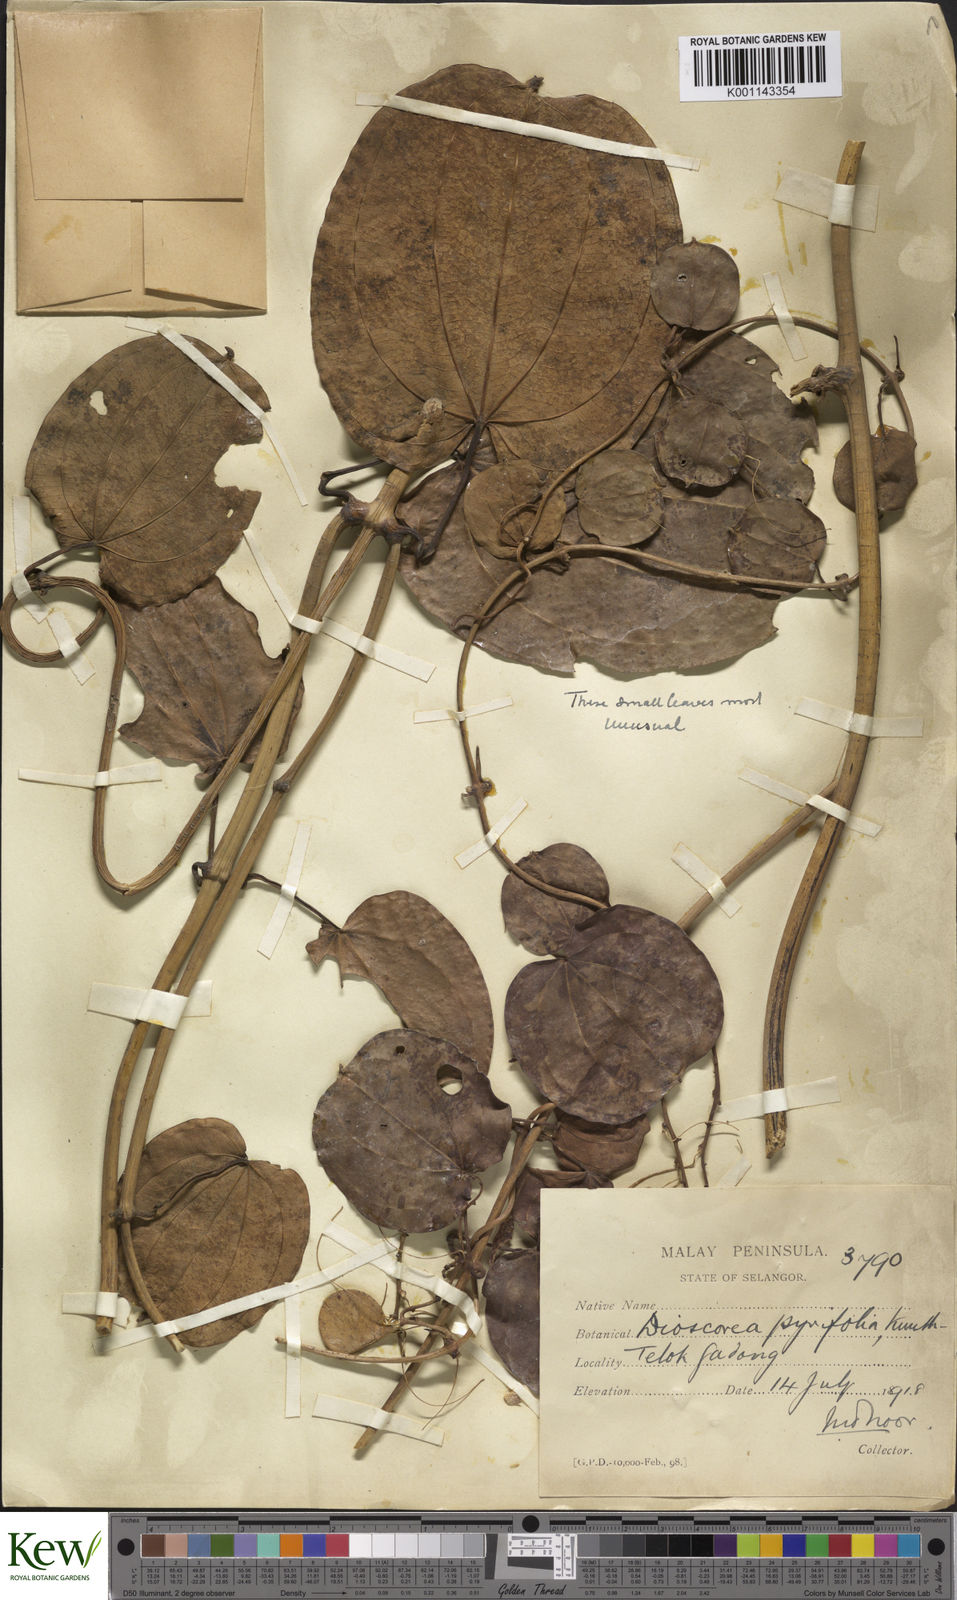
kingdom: Plantae
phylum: Tracheophyta
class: Liliopsida
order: Dioscoreales
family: Dioscoreaceae
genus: Dioscorea
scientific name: Dioscorea pyrifolia
